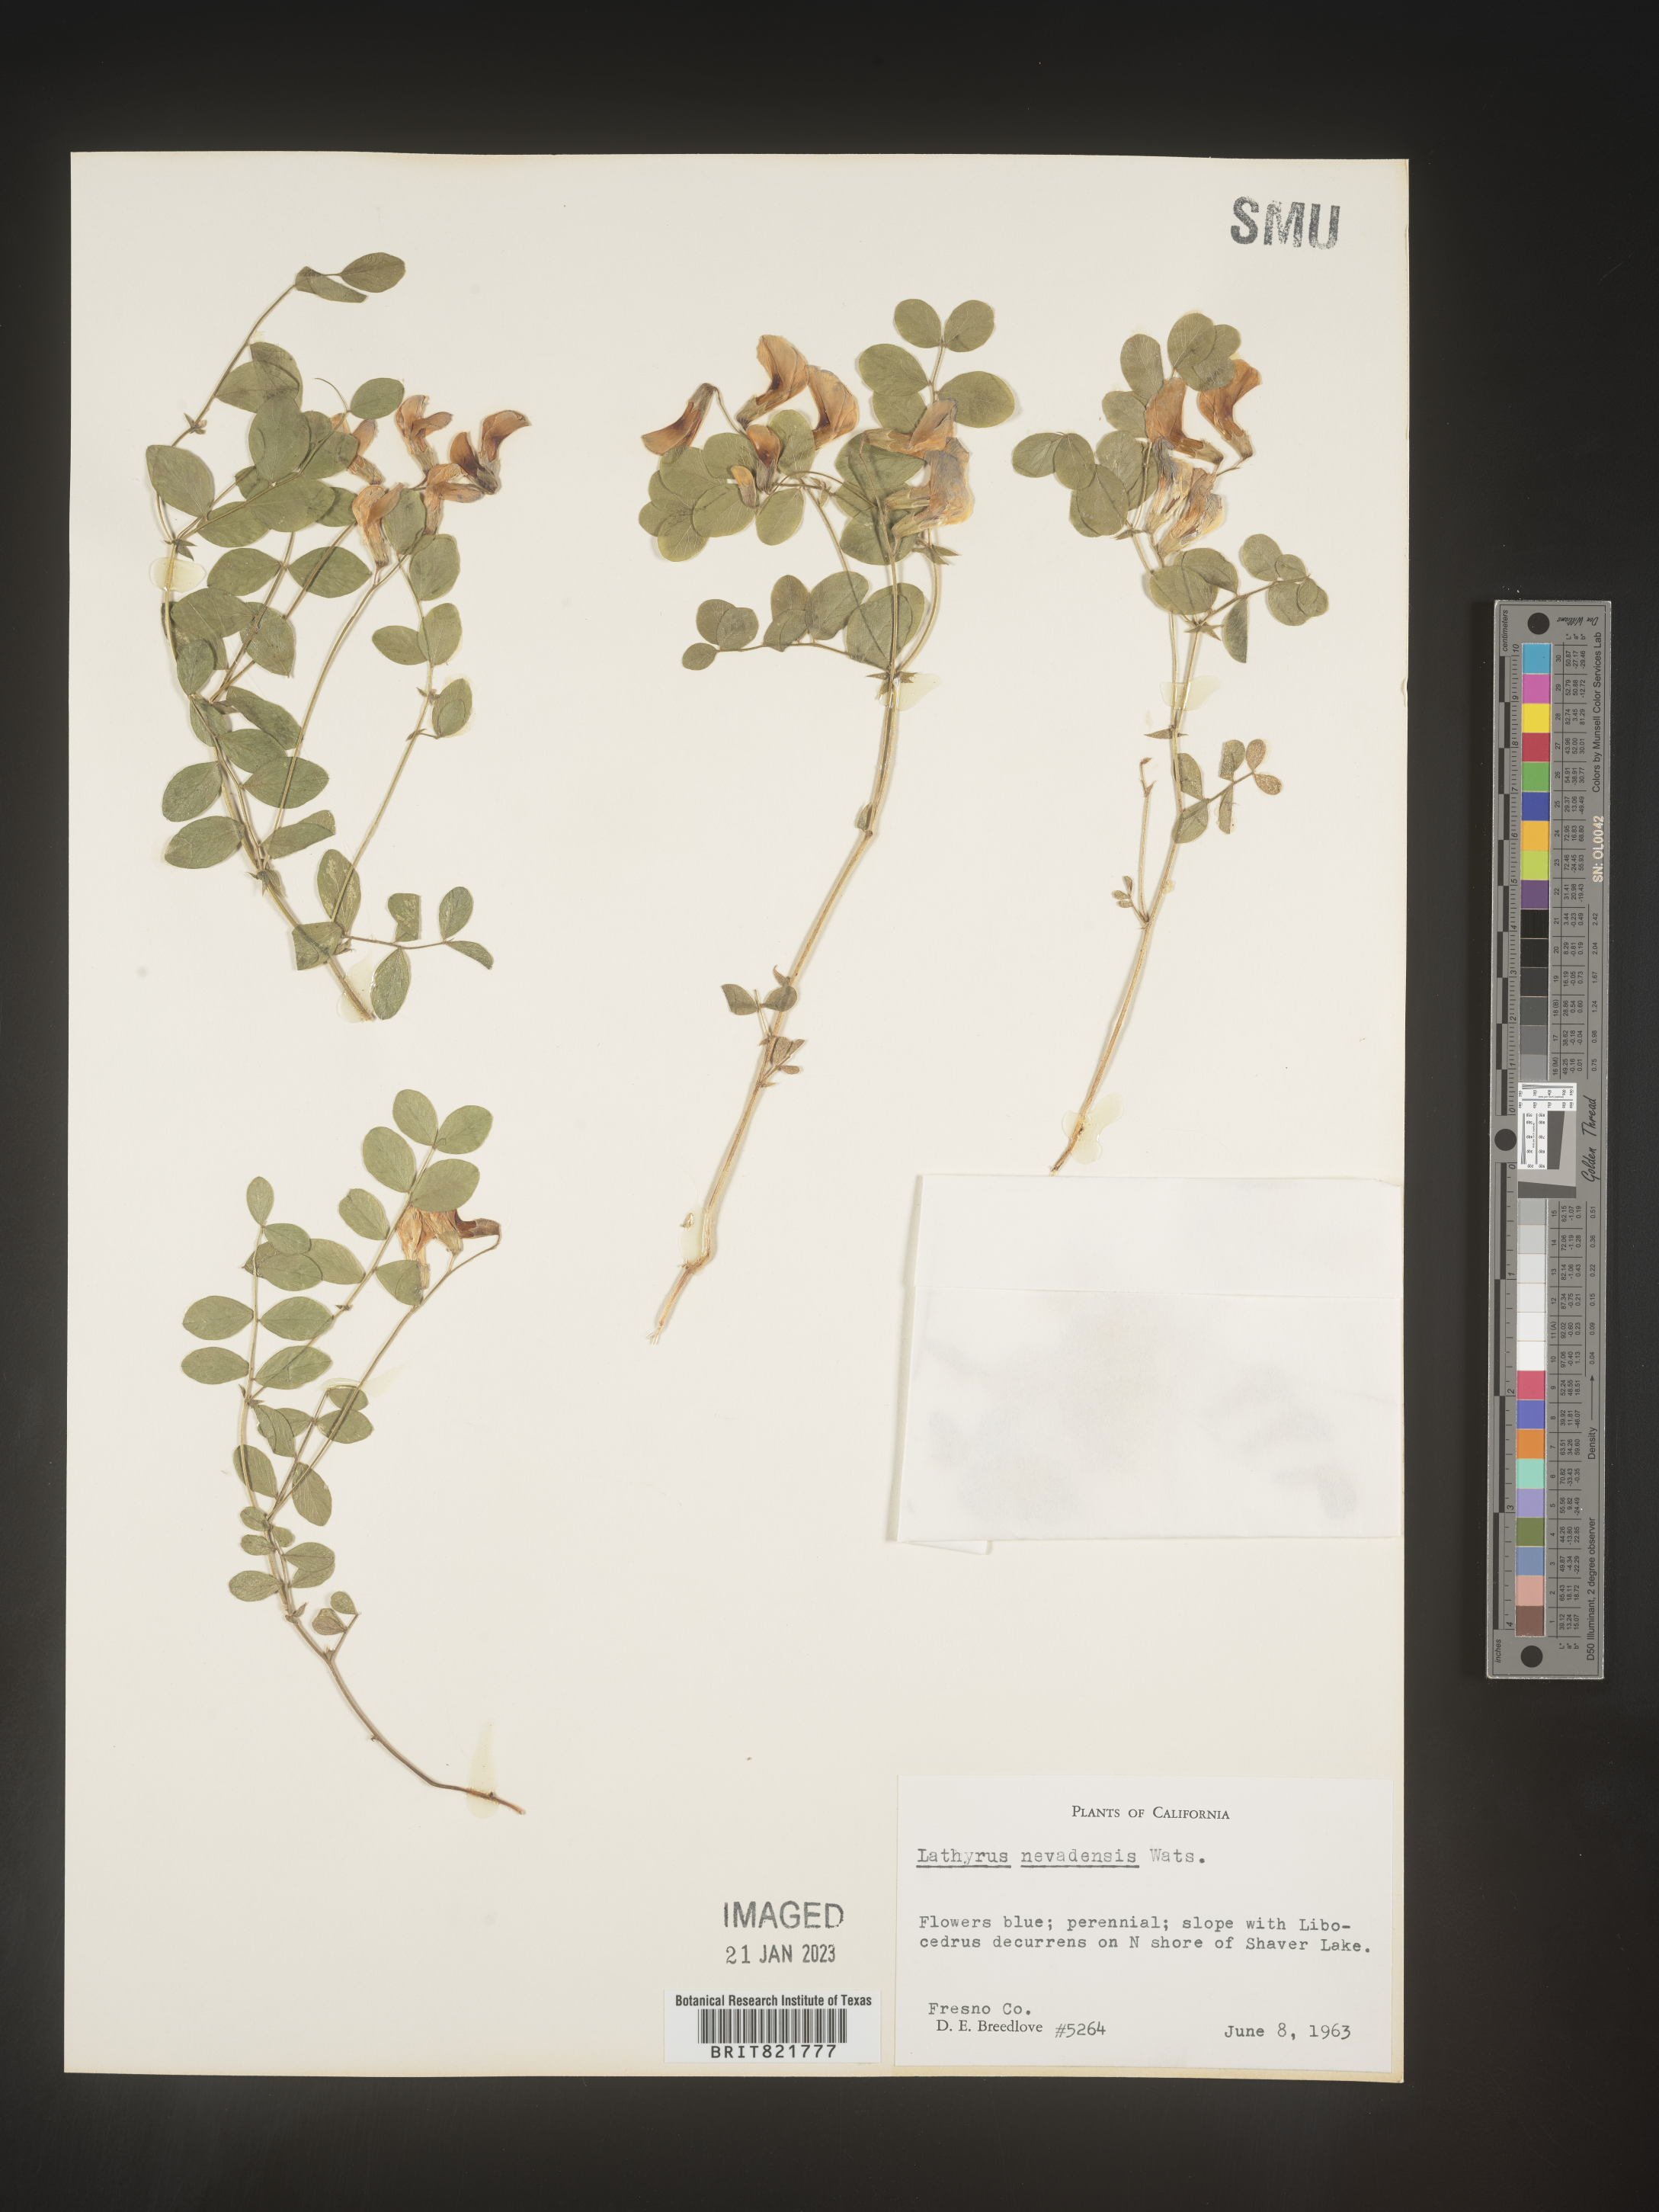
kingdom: Plantae
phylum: Tracheophyta
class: Magnoliopsida
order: Fabales
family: Fabaceae
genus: Lathyrus
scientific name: Lathyrus
